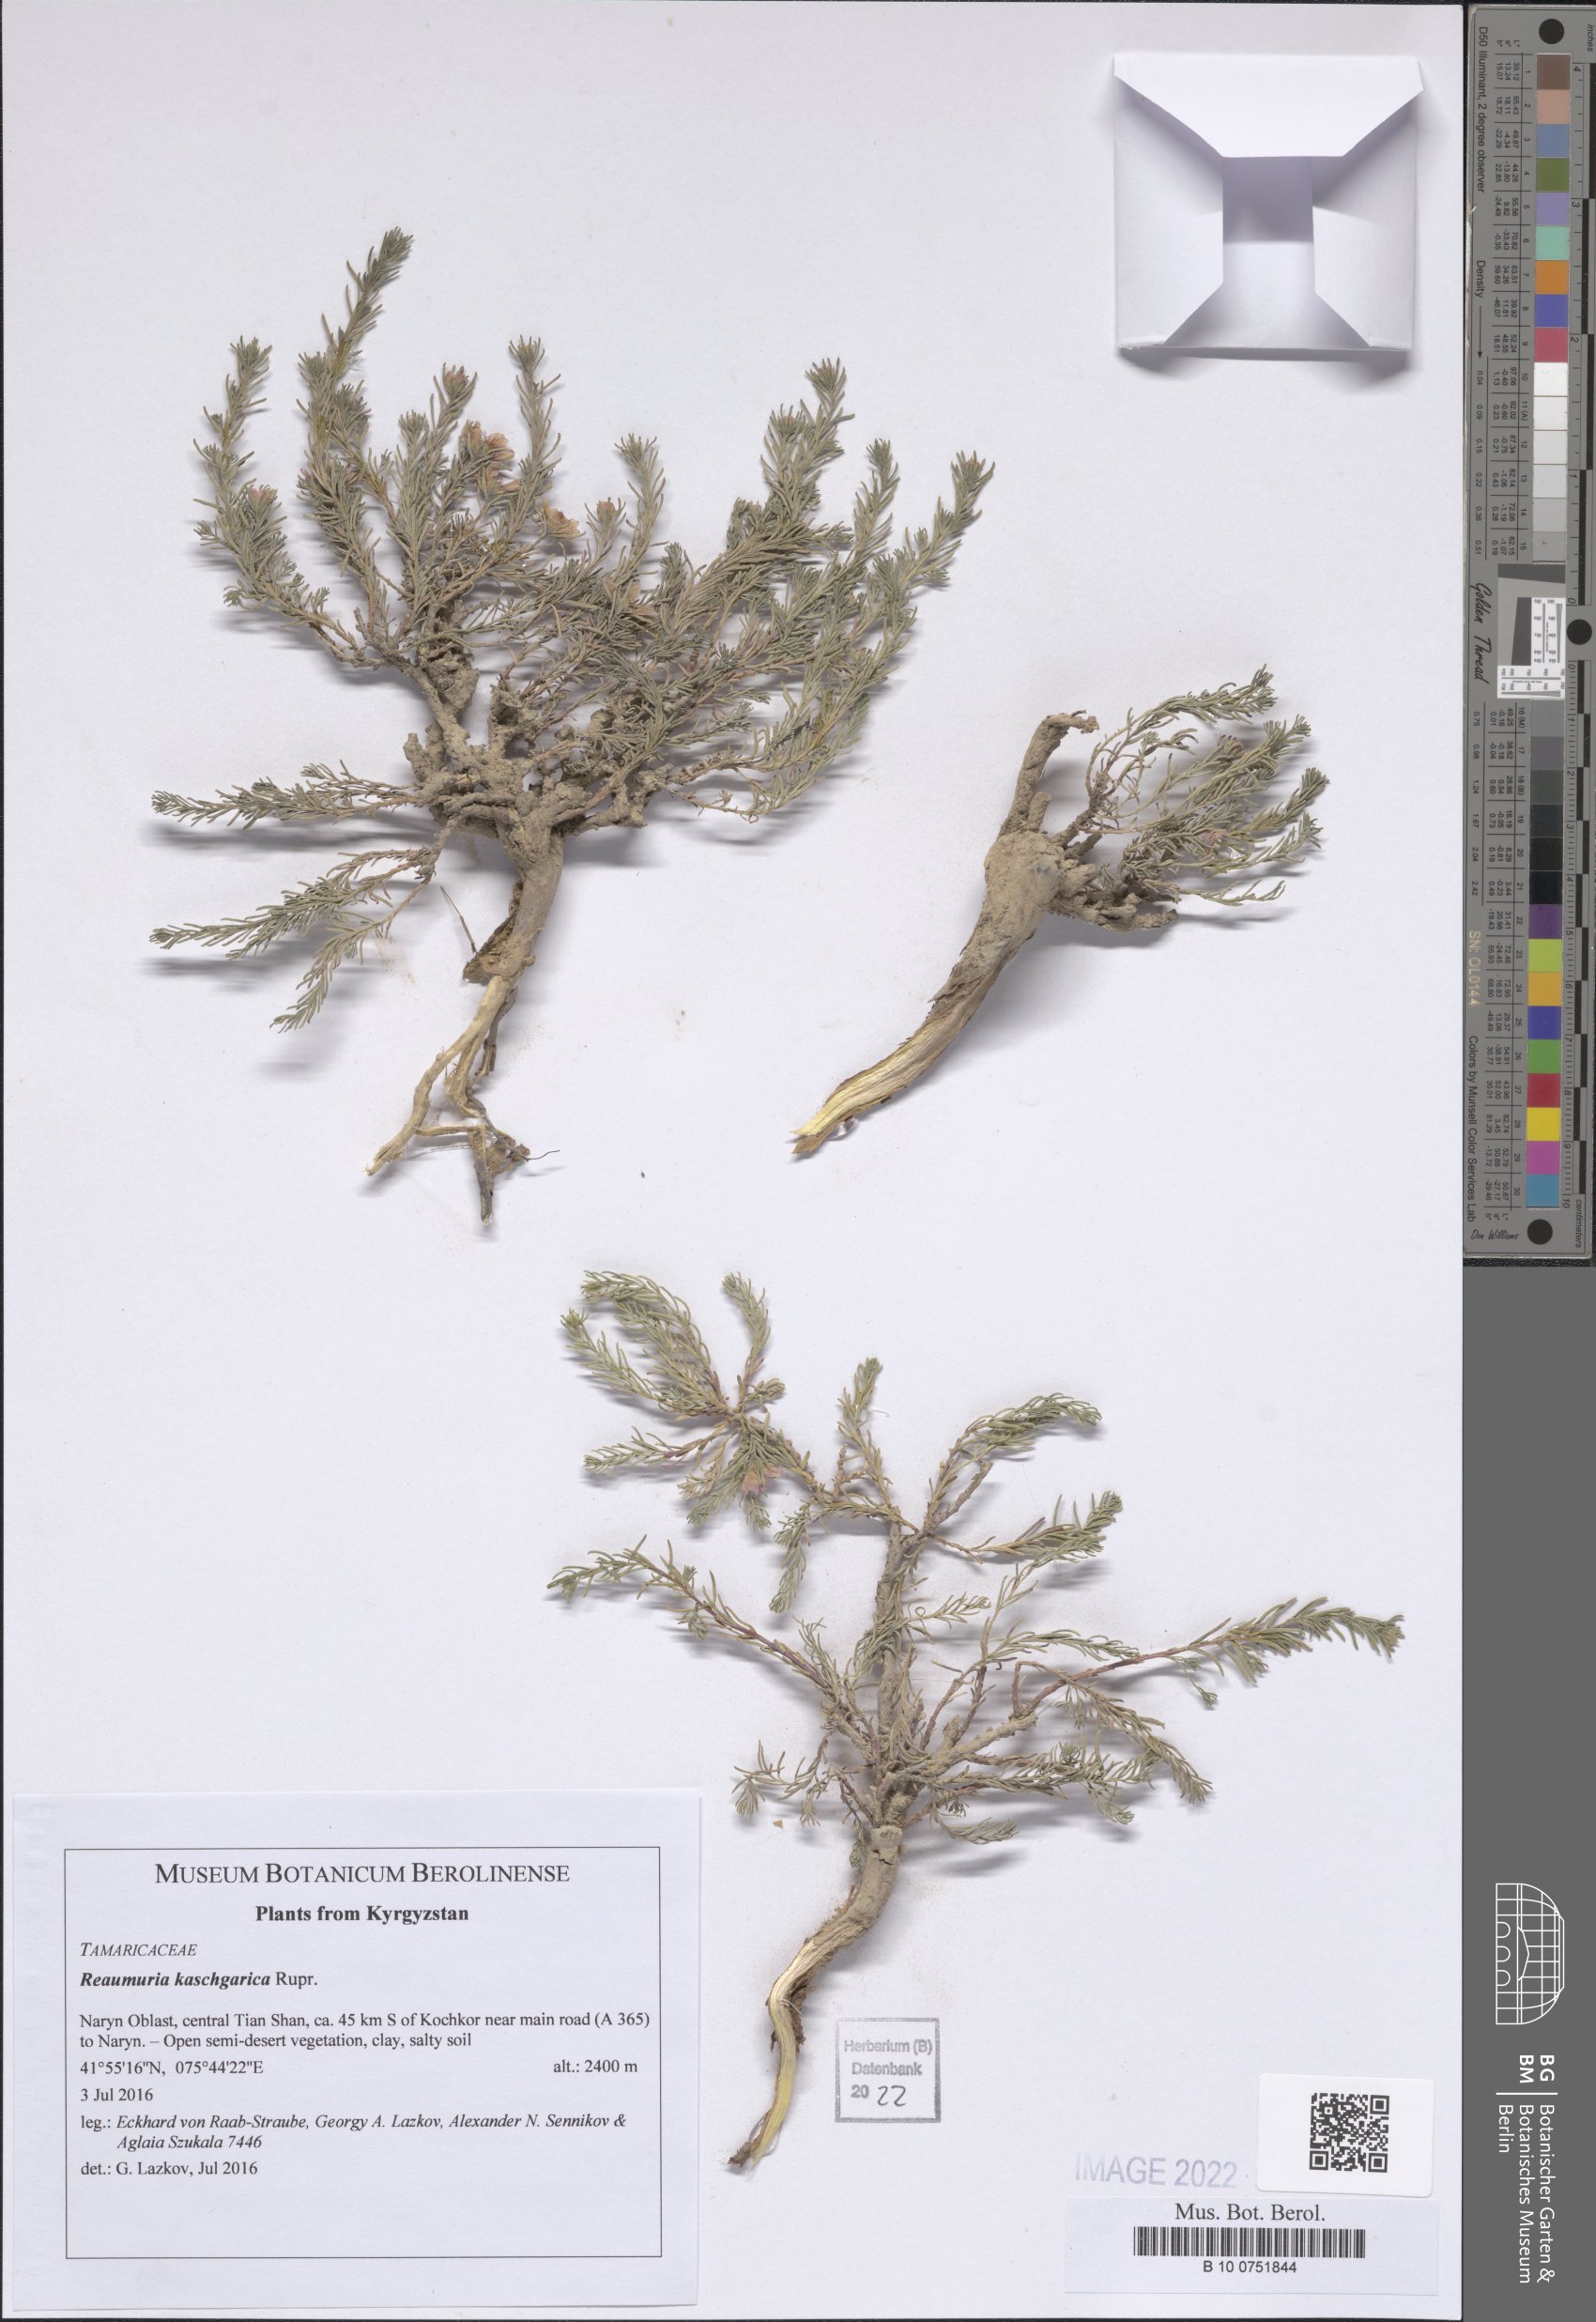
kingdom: Plantae
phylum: Tracheophyta
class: Magnoliopsida
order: Caryophyllales
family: Tamaricaceae
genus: Reaumuria
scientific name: Reaumuria kaschgarica
